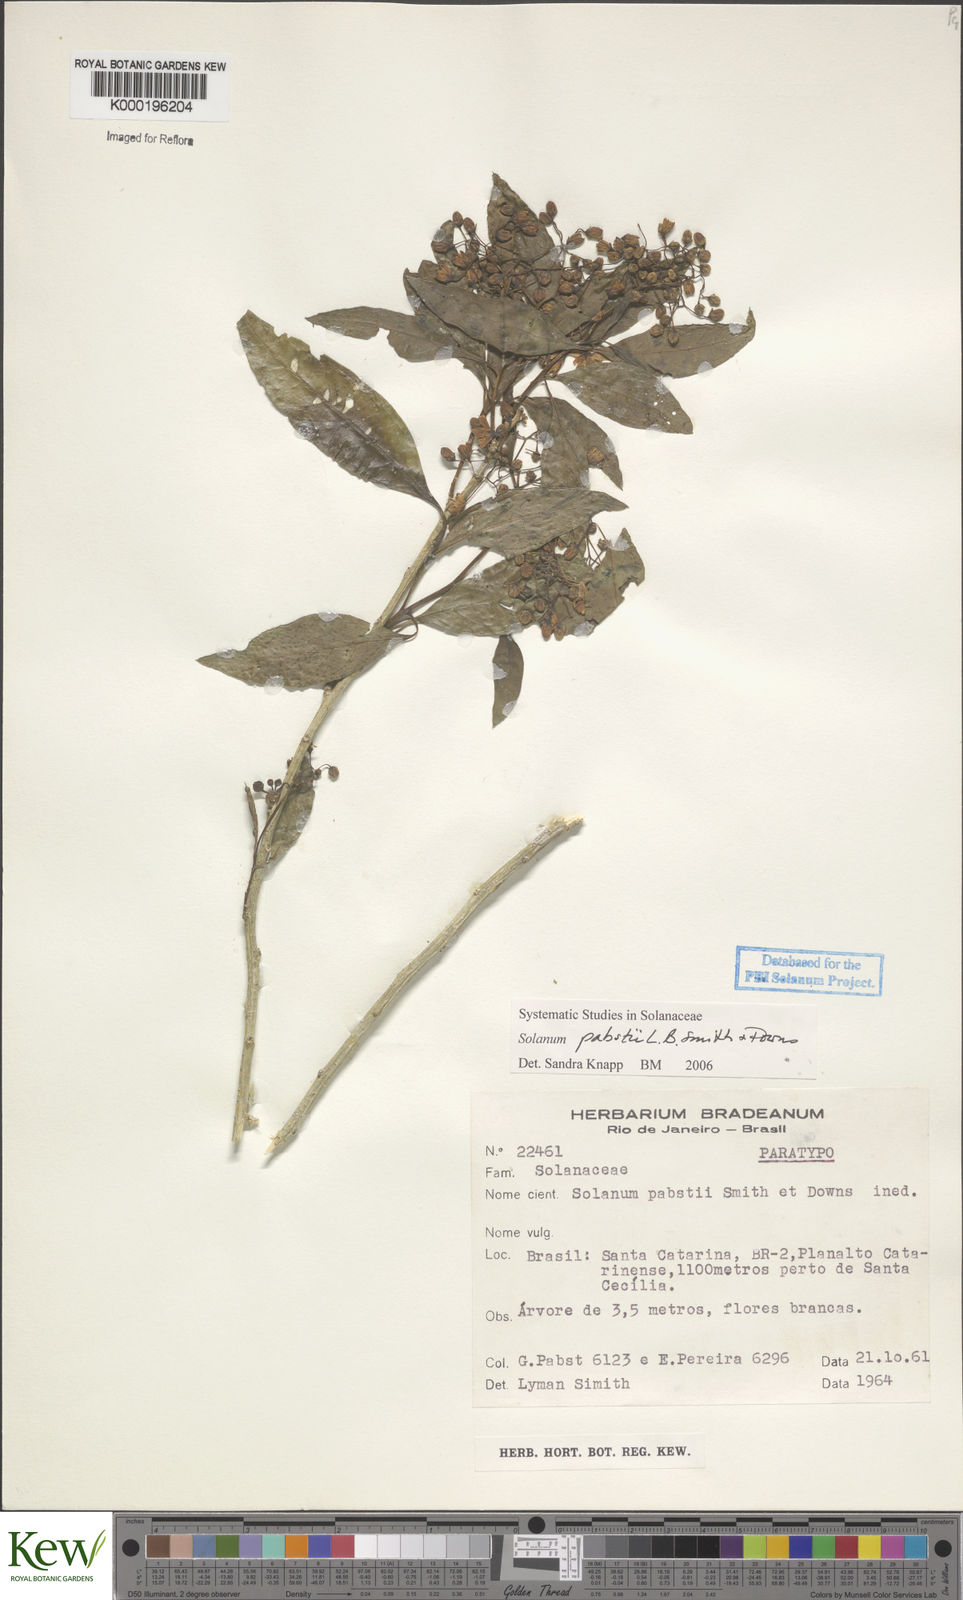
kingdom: Plantae
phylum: Tracheophyta
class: Magnoliopsida
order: Solanales
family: Solanaceae
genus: Solanum
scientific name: Solanum pabstii
